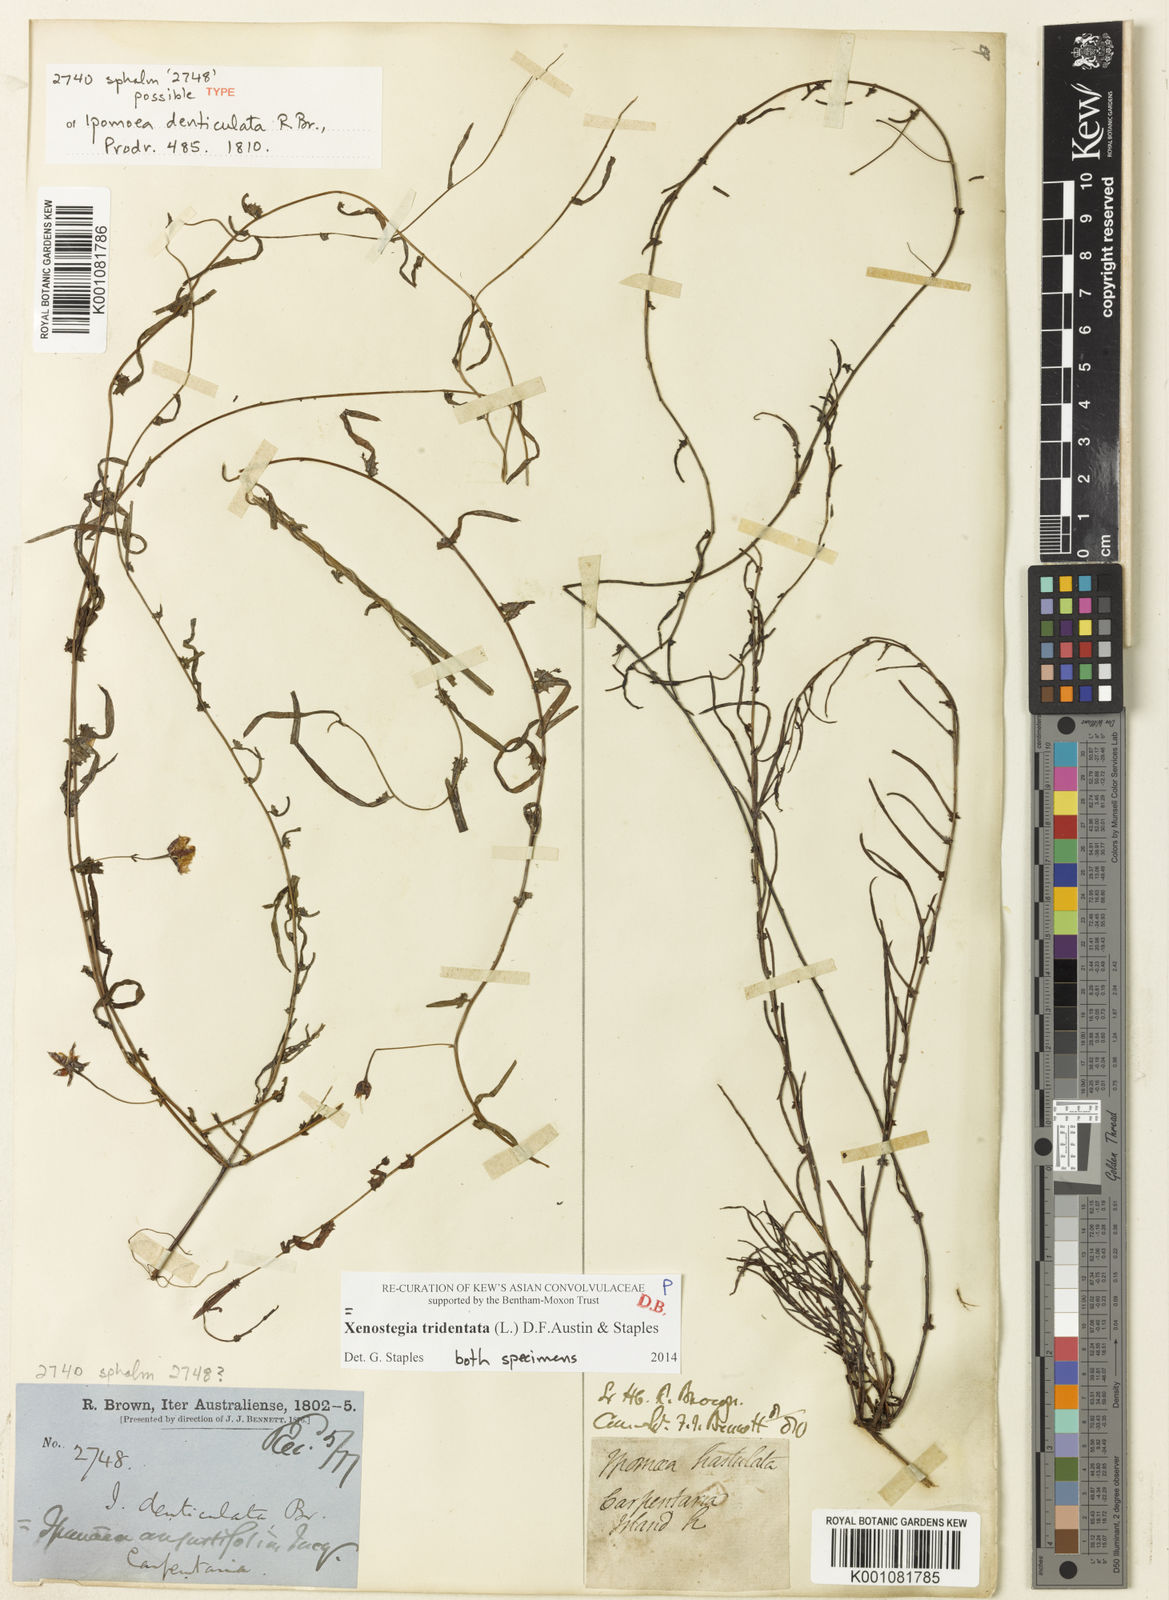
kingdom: Plantae
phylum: Tracheophyta
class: Magnoliopsida
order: Solanales
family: Convolvulaceae
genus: Xenostegia
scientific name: Xenostegia tridentata
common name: African morningvine
